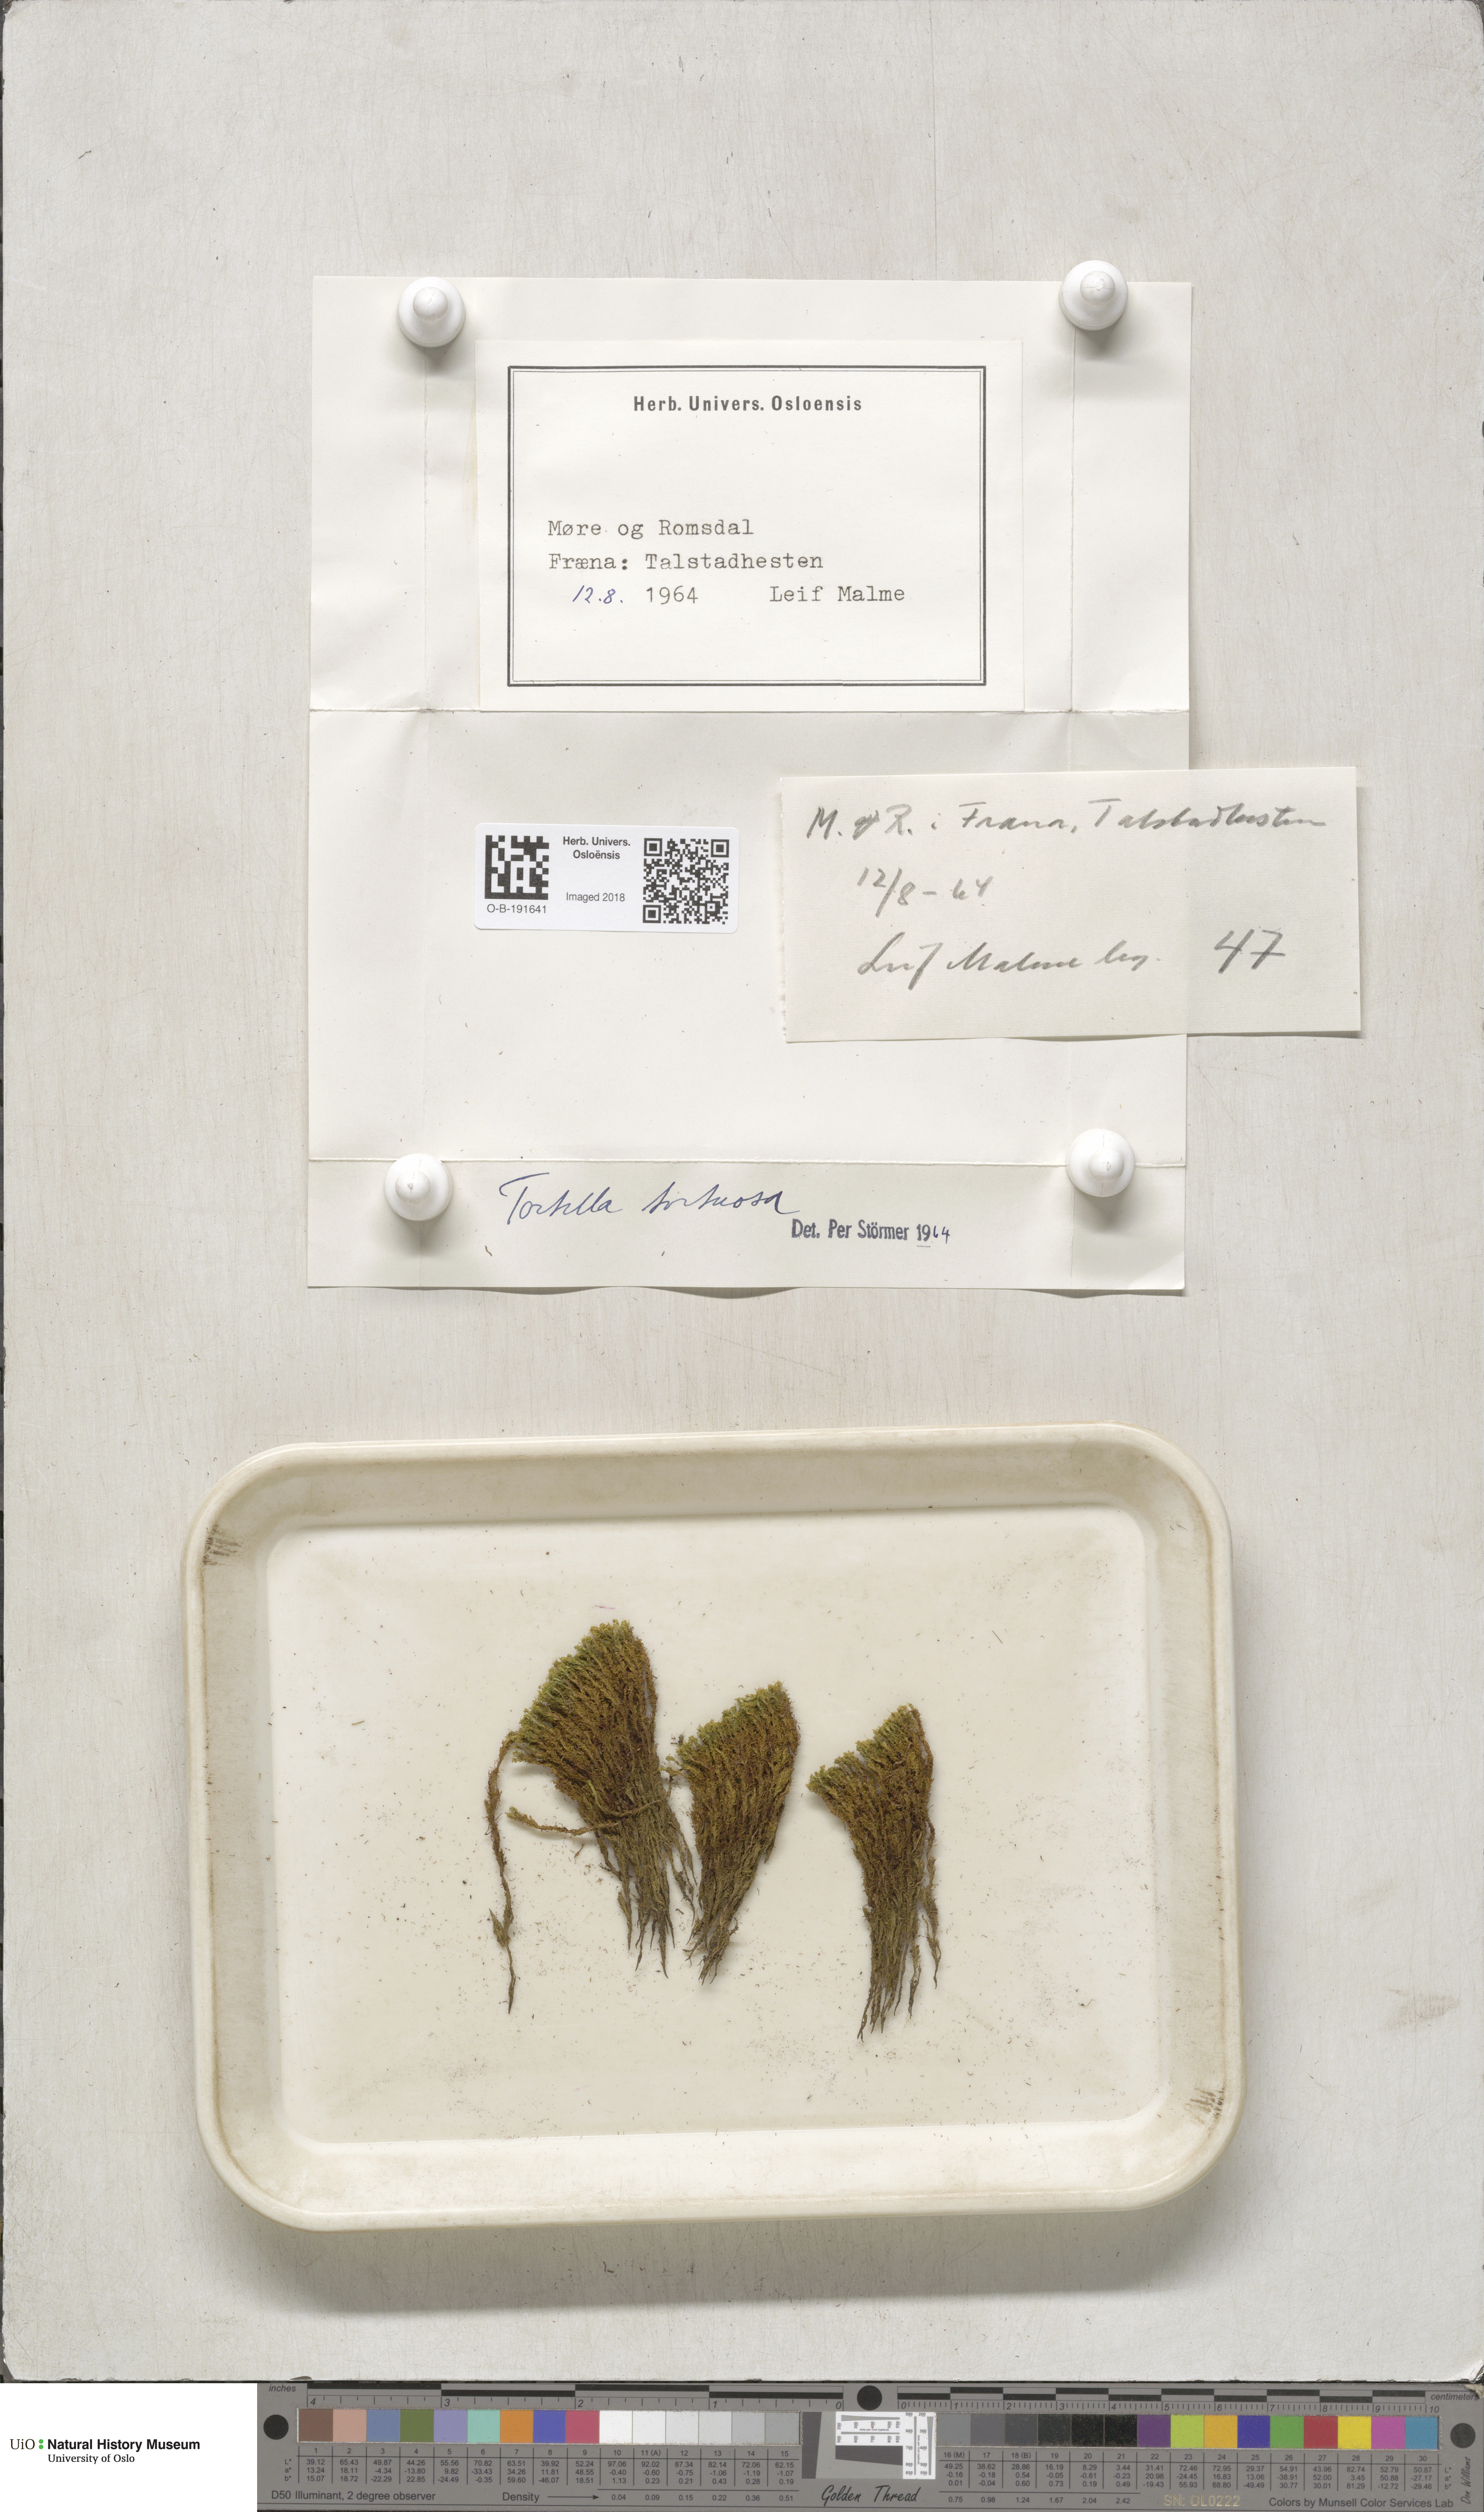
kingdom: Plantae
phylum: Bryophyta
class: Bryopsida
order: Pottiales
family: Pottiaceae
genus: Tortella
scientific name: Tortella tortuosa
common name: Frizzled crisp moss
